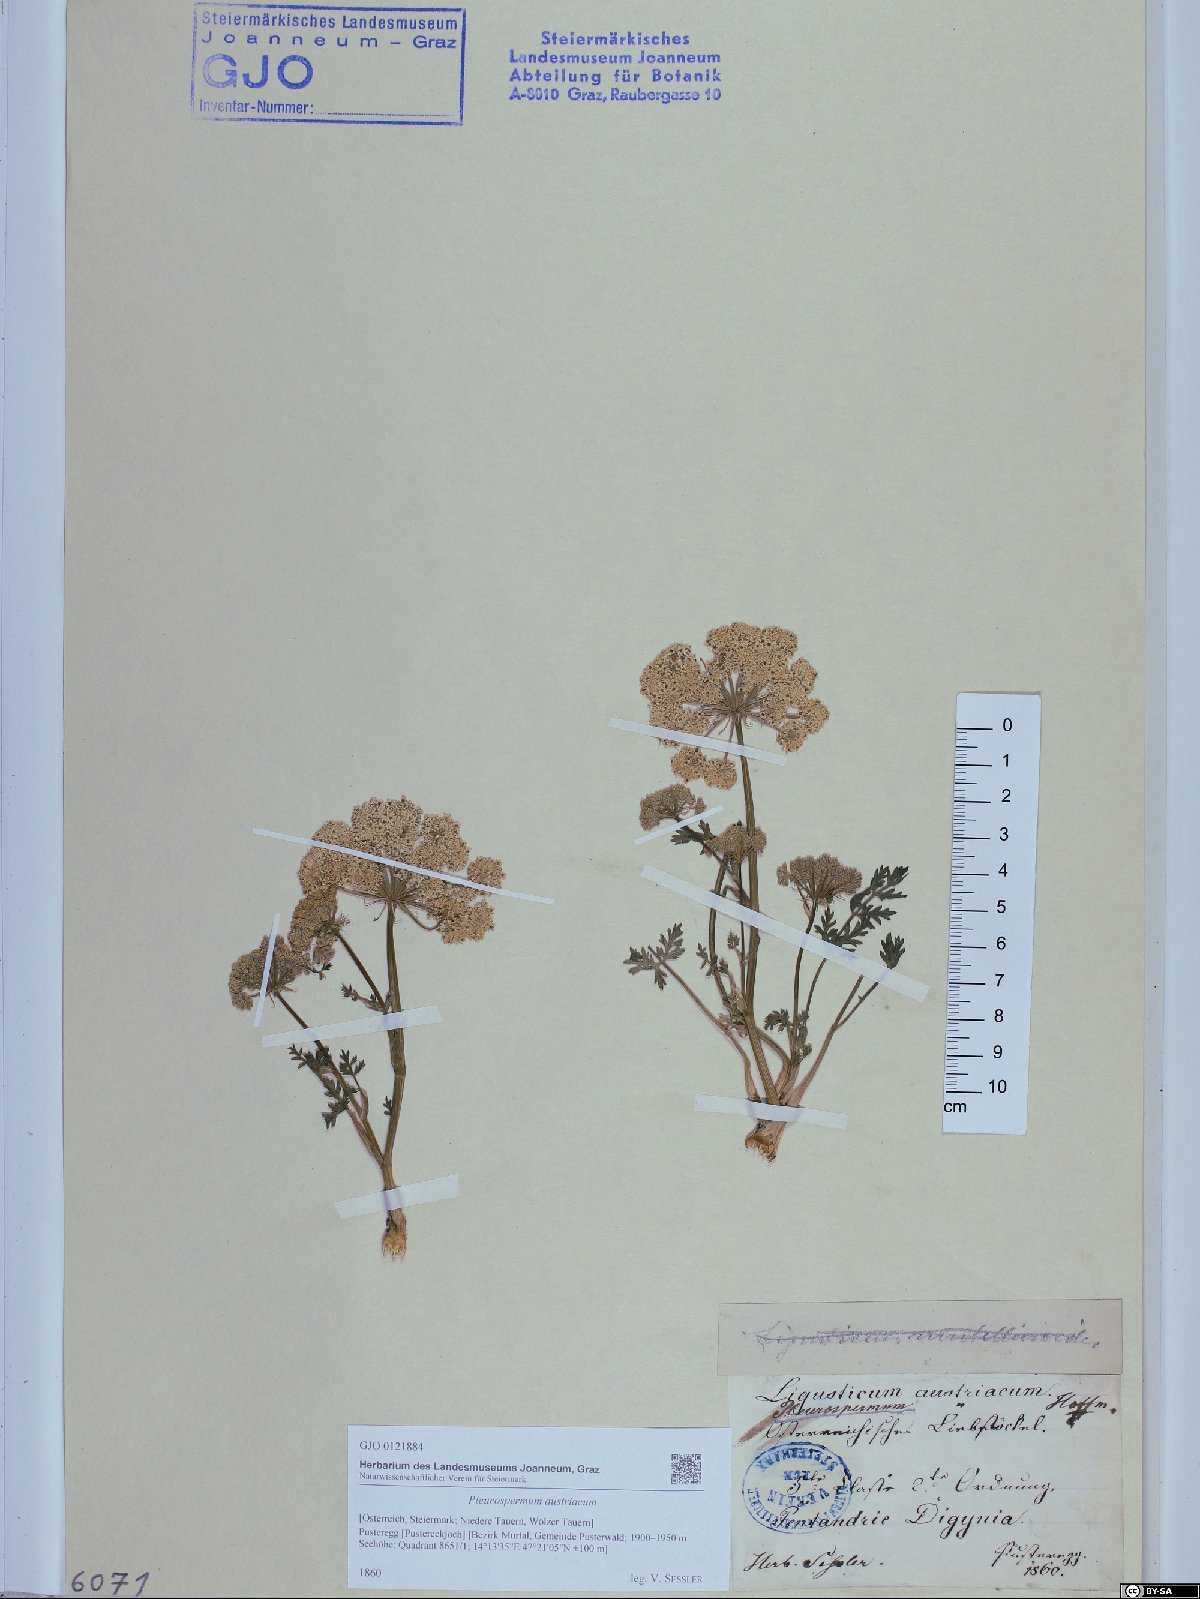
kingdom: Plantae
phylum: Tracheophyta
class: Magnoliopsida
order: Apiales
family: Apiaceae
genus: Pleurospermum
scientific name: Pleurospermum austriacum
